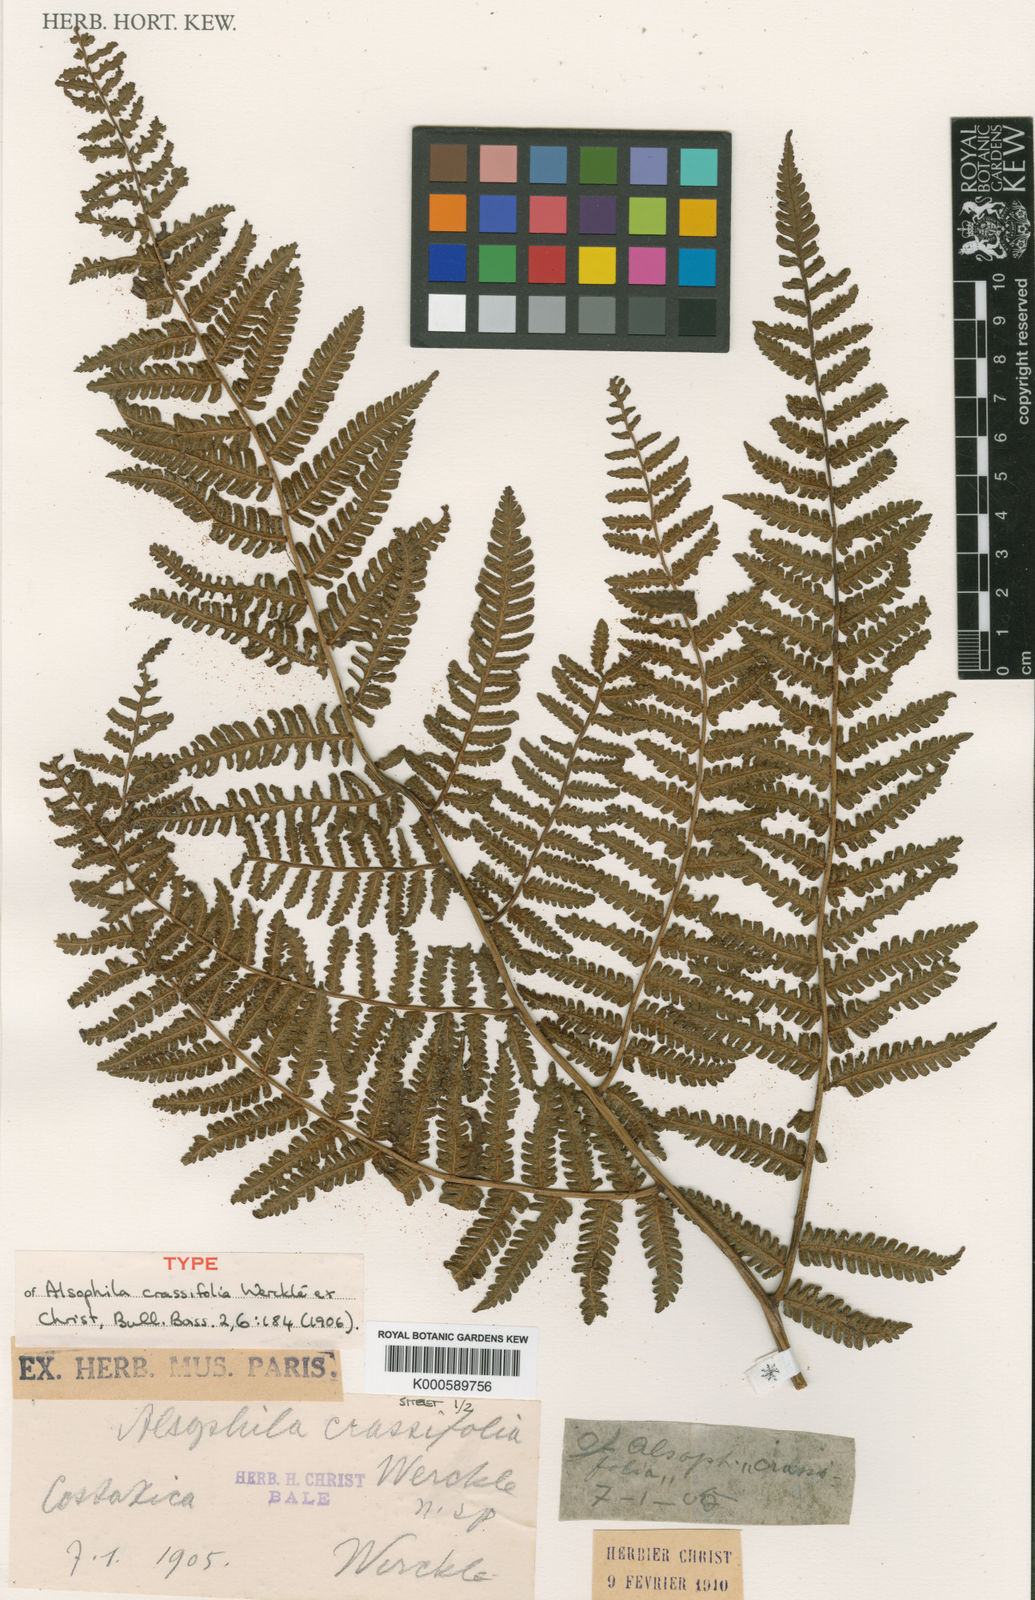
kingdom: Plantae
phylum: Tracheophyta
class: Polypodiopsida
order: Cyatheales
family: Cyatheaceae
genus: Cyathea
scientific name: Cyathea
